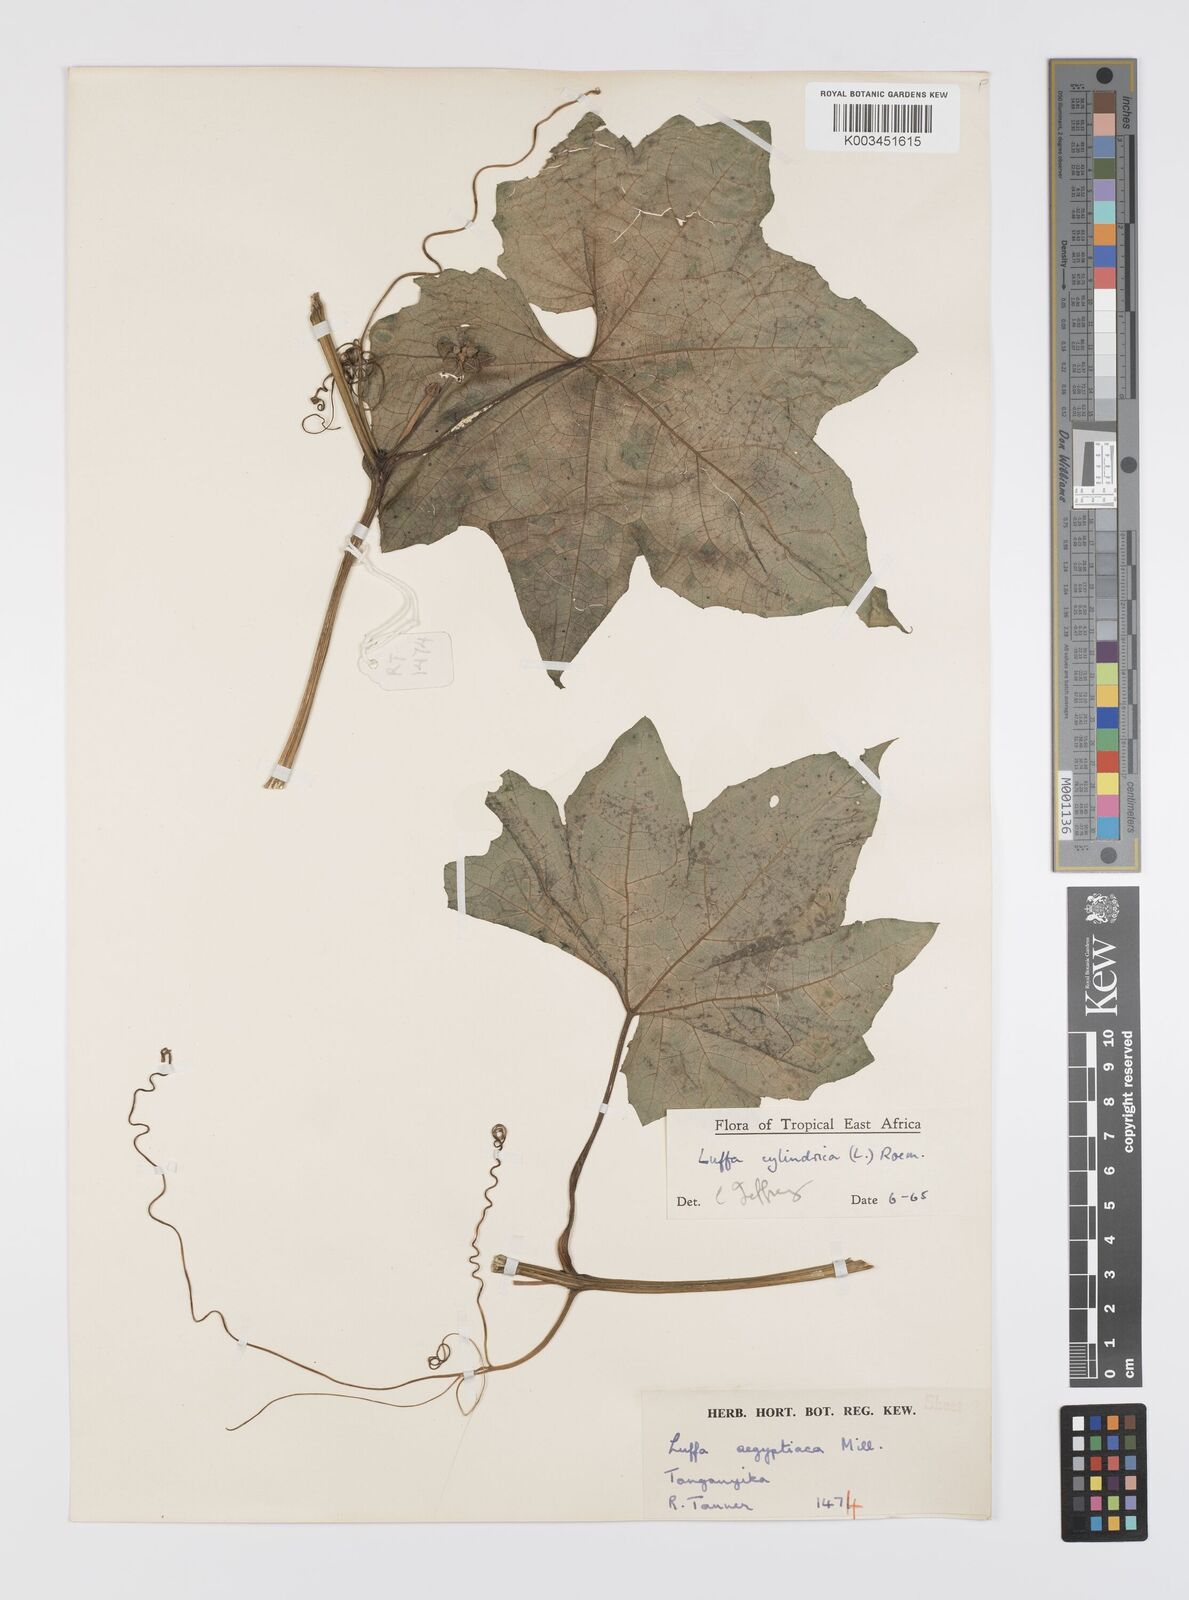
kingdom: Plantae
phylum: Tracheophyta
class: Magnoliopsida
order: Cucurbitales
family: Cucurbitaceae
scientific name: Cucurbitaceae
